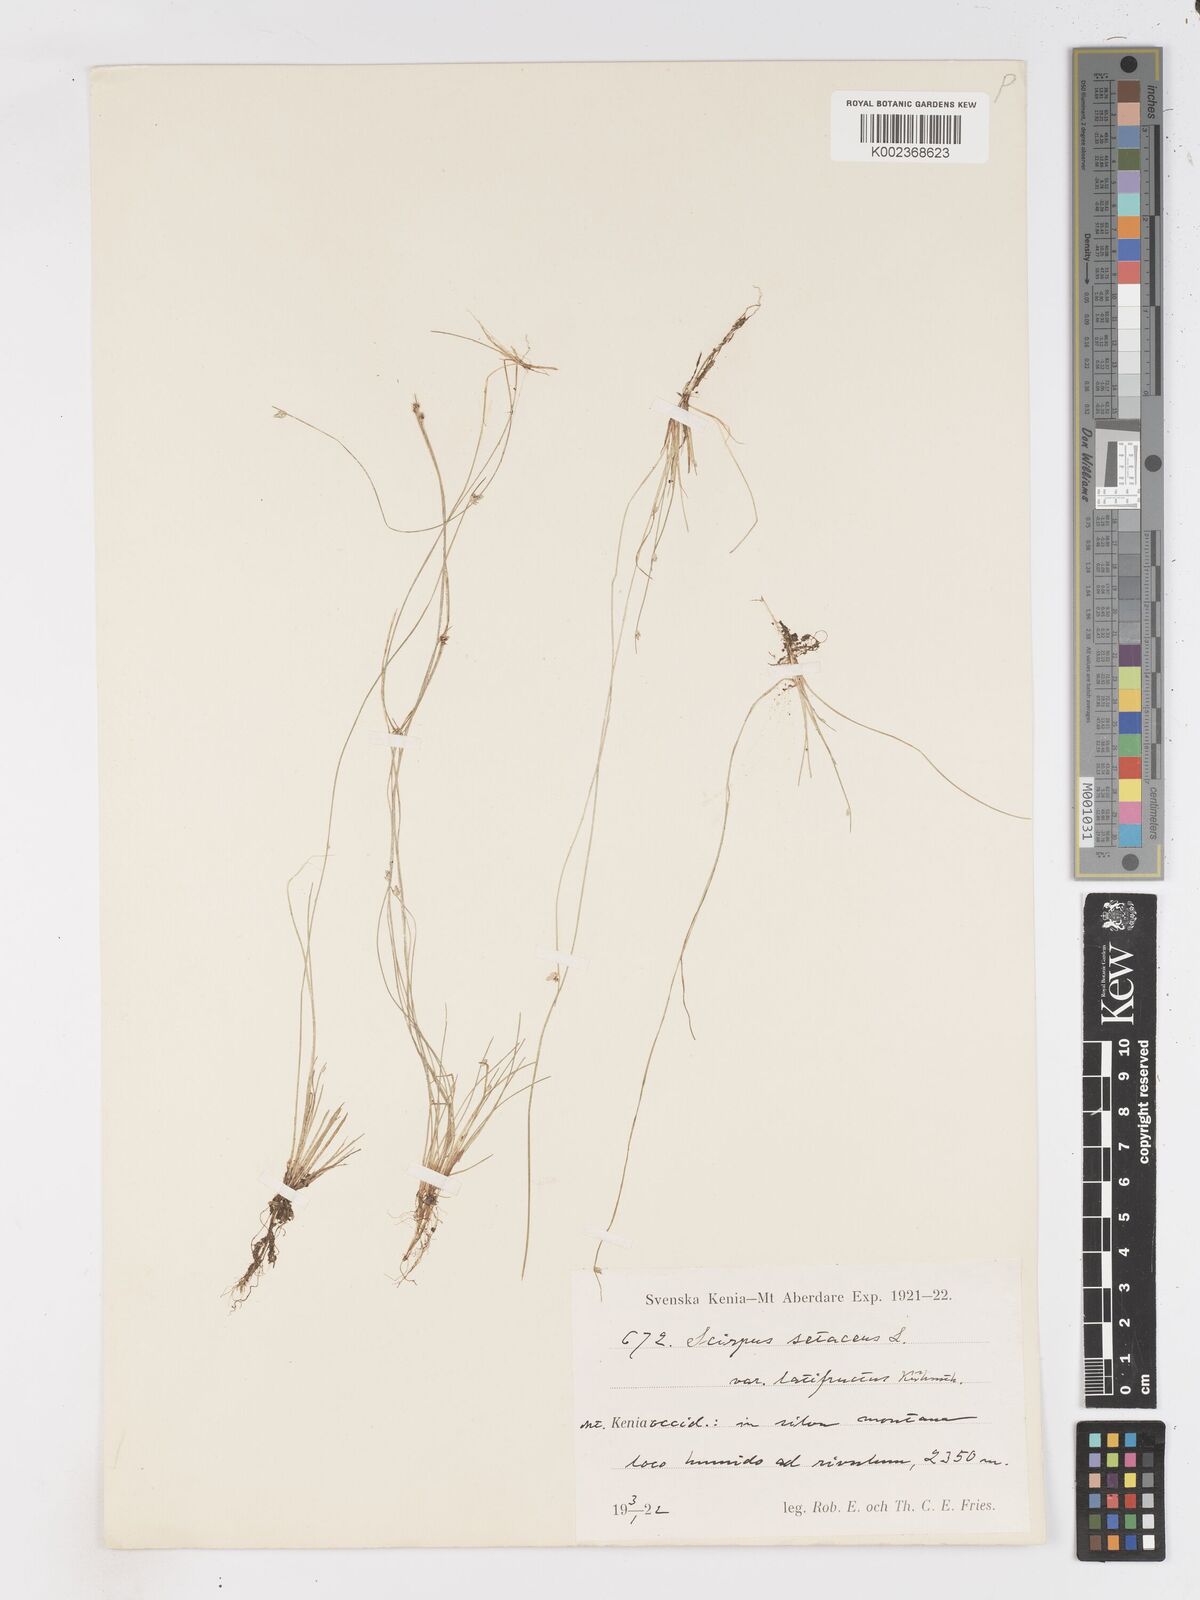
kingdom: Plantae
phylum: Tracheophyta
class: Liliopsida
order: Poales
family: Cyperaceae
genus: Isolepis
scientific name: Isolepis setacea
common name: Bristle club-rush
